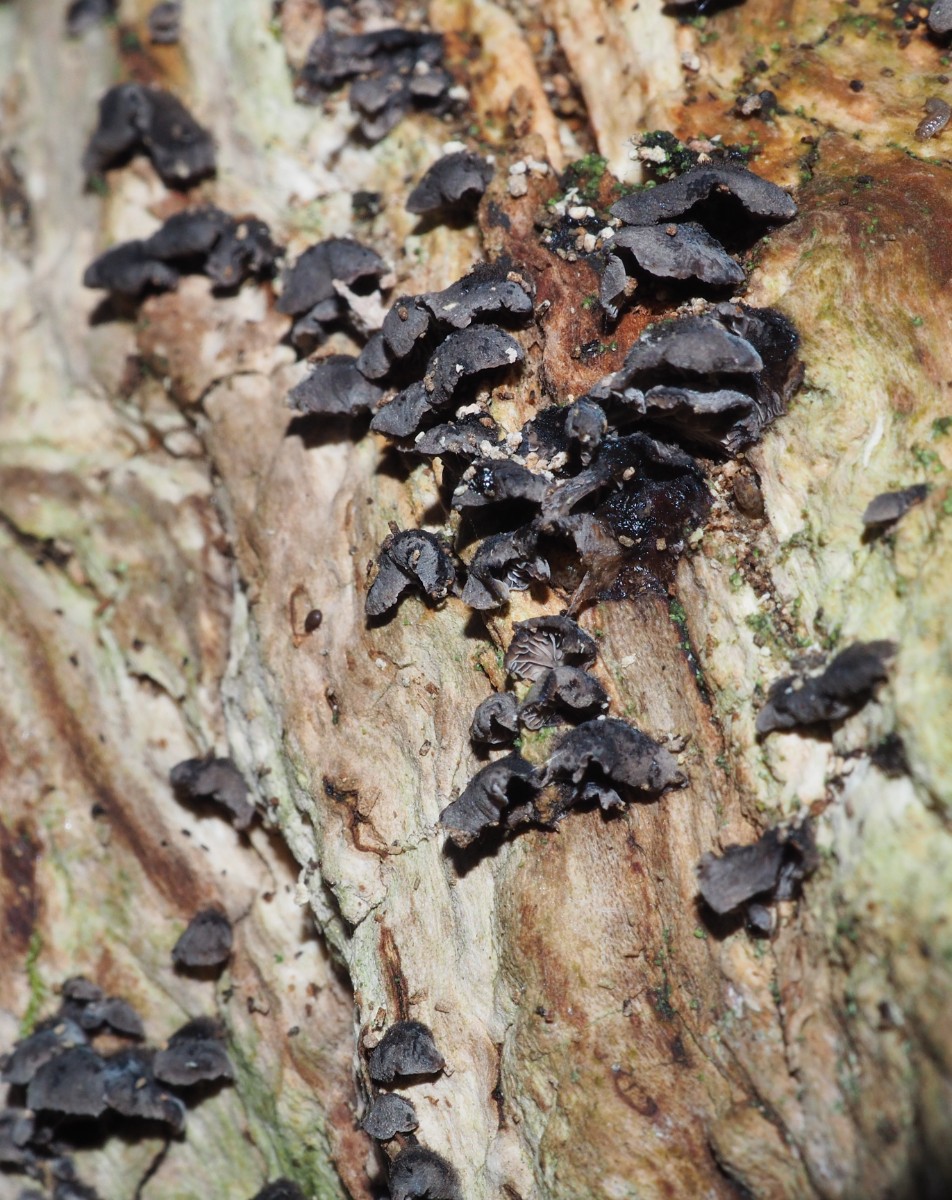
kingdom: Fungi
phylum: Basidiomycota
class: Agaricomycetes
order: Agaricales
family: Pleurotaceae
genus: Resupinatus
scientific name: Resupinatus trichotis
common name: mørkfiltet barkhat
